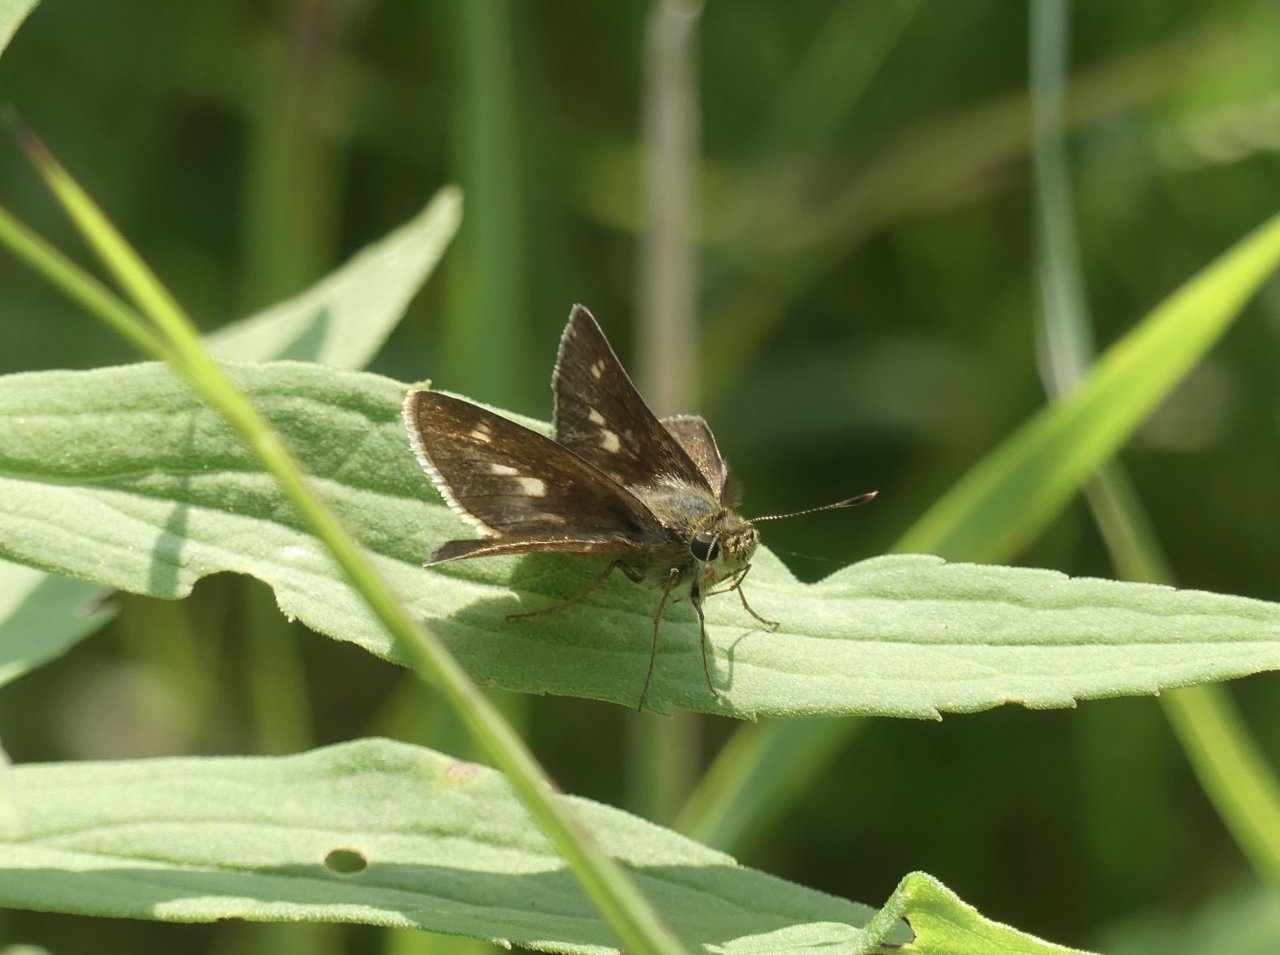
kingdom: Animalia
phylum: Arthropoda
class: Insecta
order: Lepidoptera
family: Hesperiidae
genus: Polites
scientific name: Polites egeremet
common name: Northern Broken-Dash
